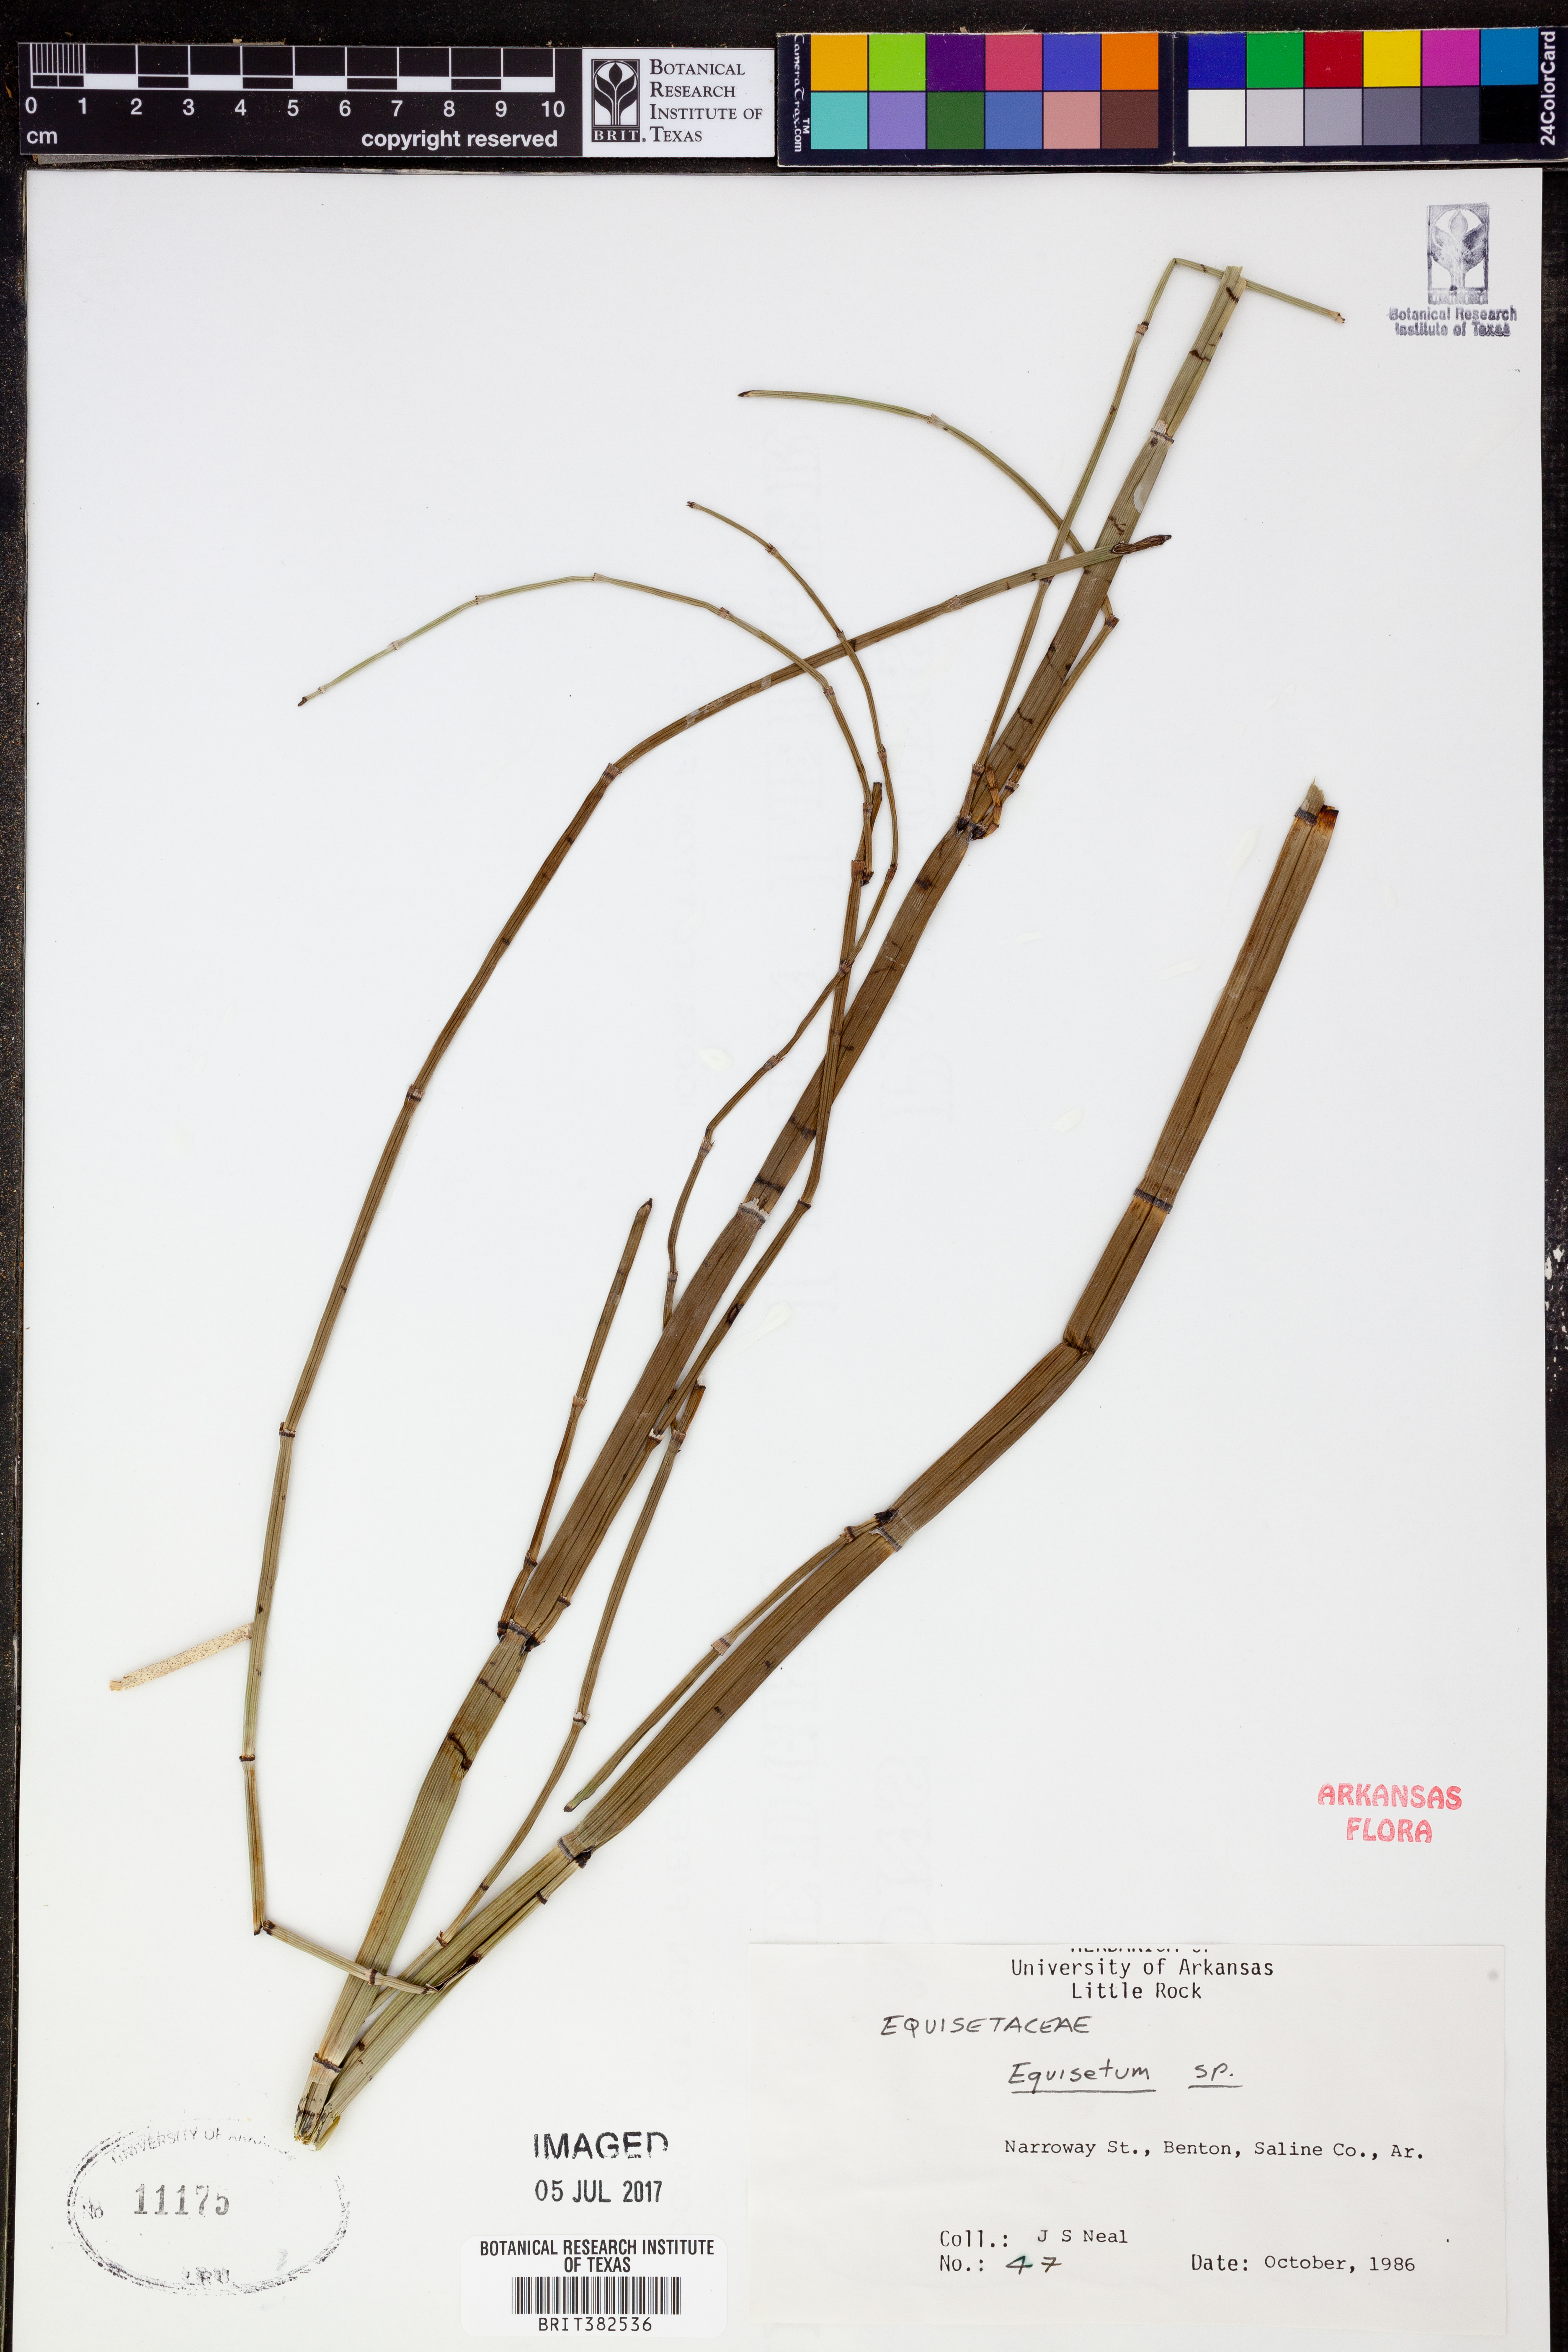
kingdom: Plantae
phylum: Tracheophyta
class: Polypodiopsida
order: Equisetales
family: Equisetaceae
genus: Equisetum
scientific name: Equisetum
